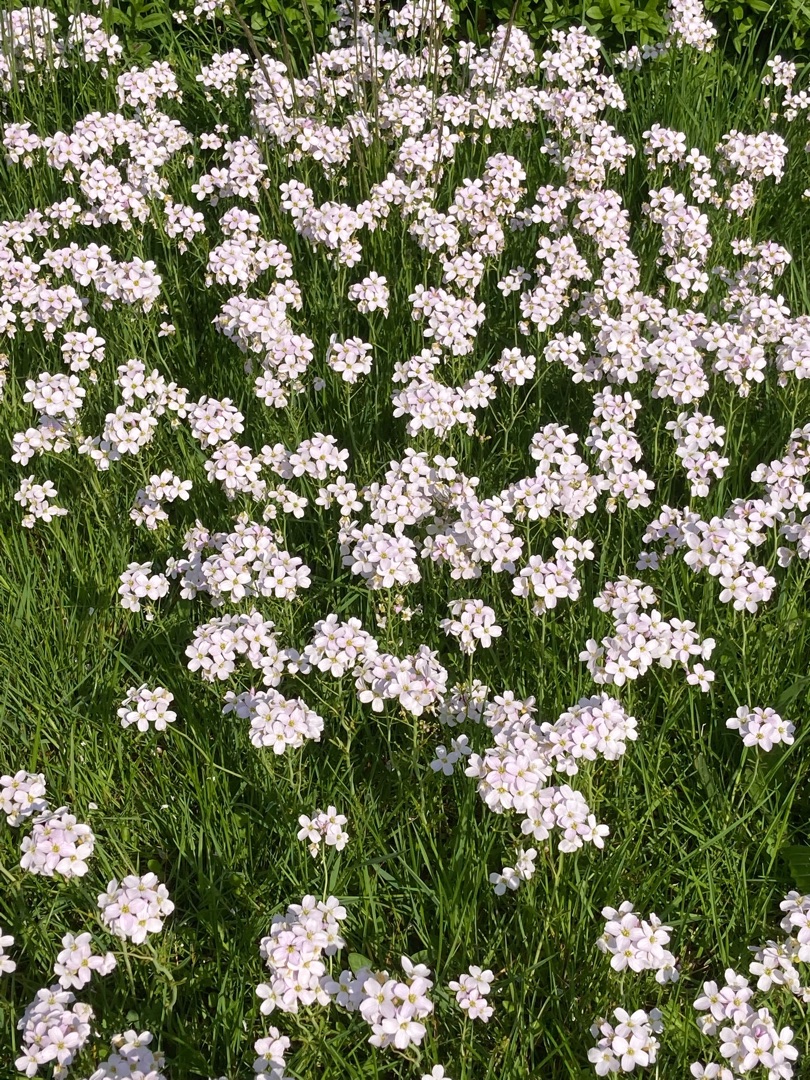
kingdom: Plantae
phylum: Tracheophyta
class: Magnoliopsida
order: Brassicales
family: Brassicaceae
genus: Cardamine
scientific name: Cardamine pratensis
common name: Engkarse
